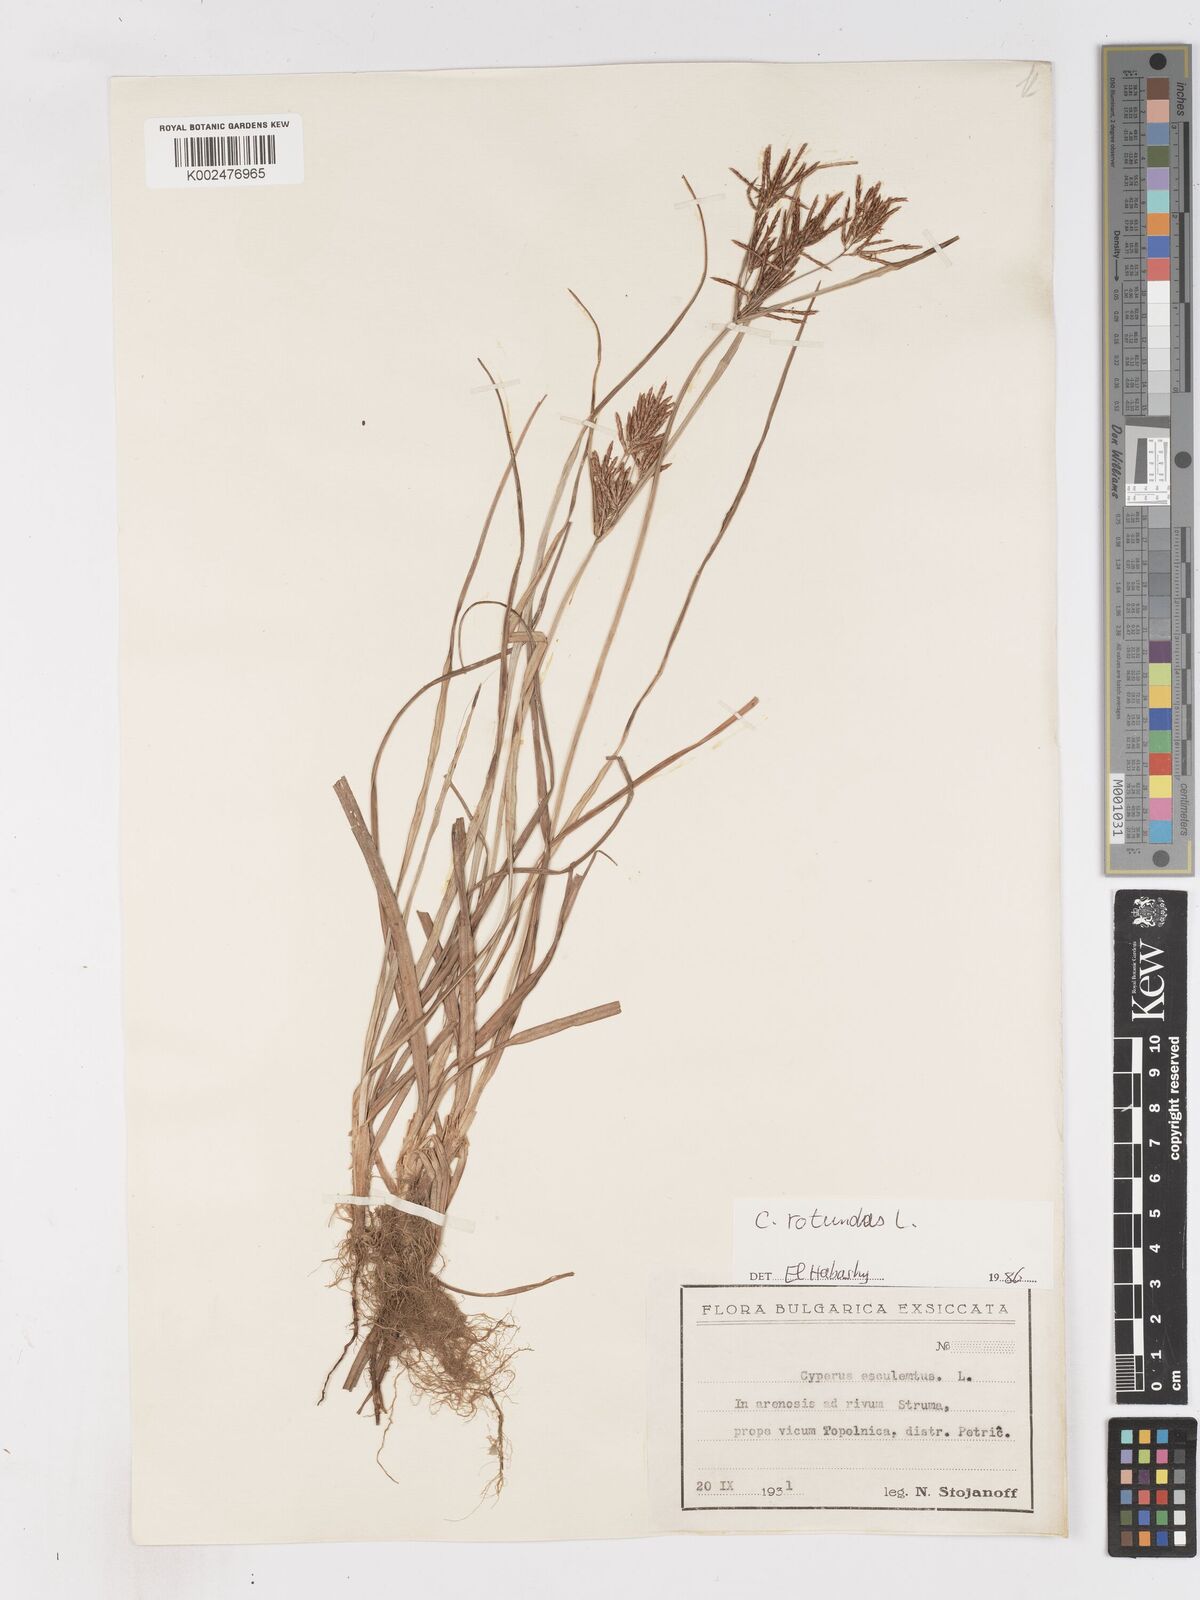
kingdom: Plantae
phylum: Tracheophyta
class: Liliopsida
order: Poales
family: Cyperaceae
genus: Cyperus
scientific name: Cyperus rotundus
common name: Nutgrass
